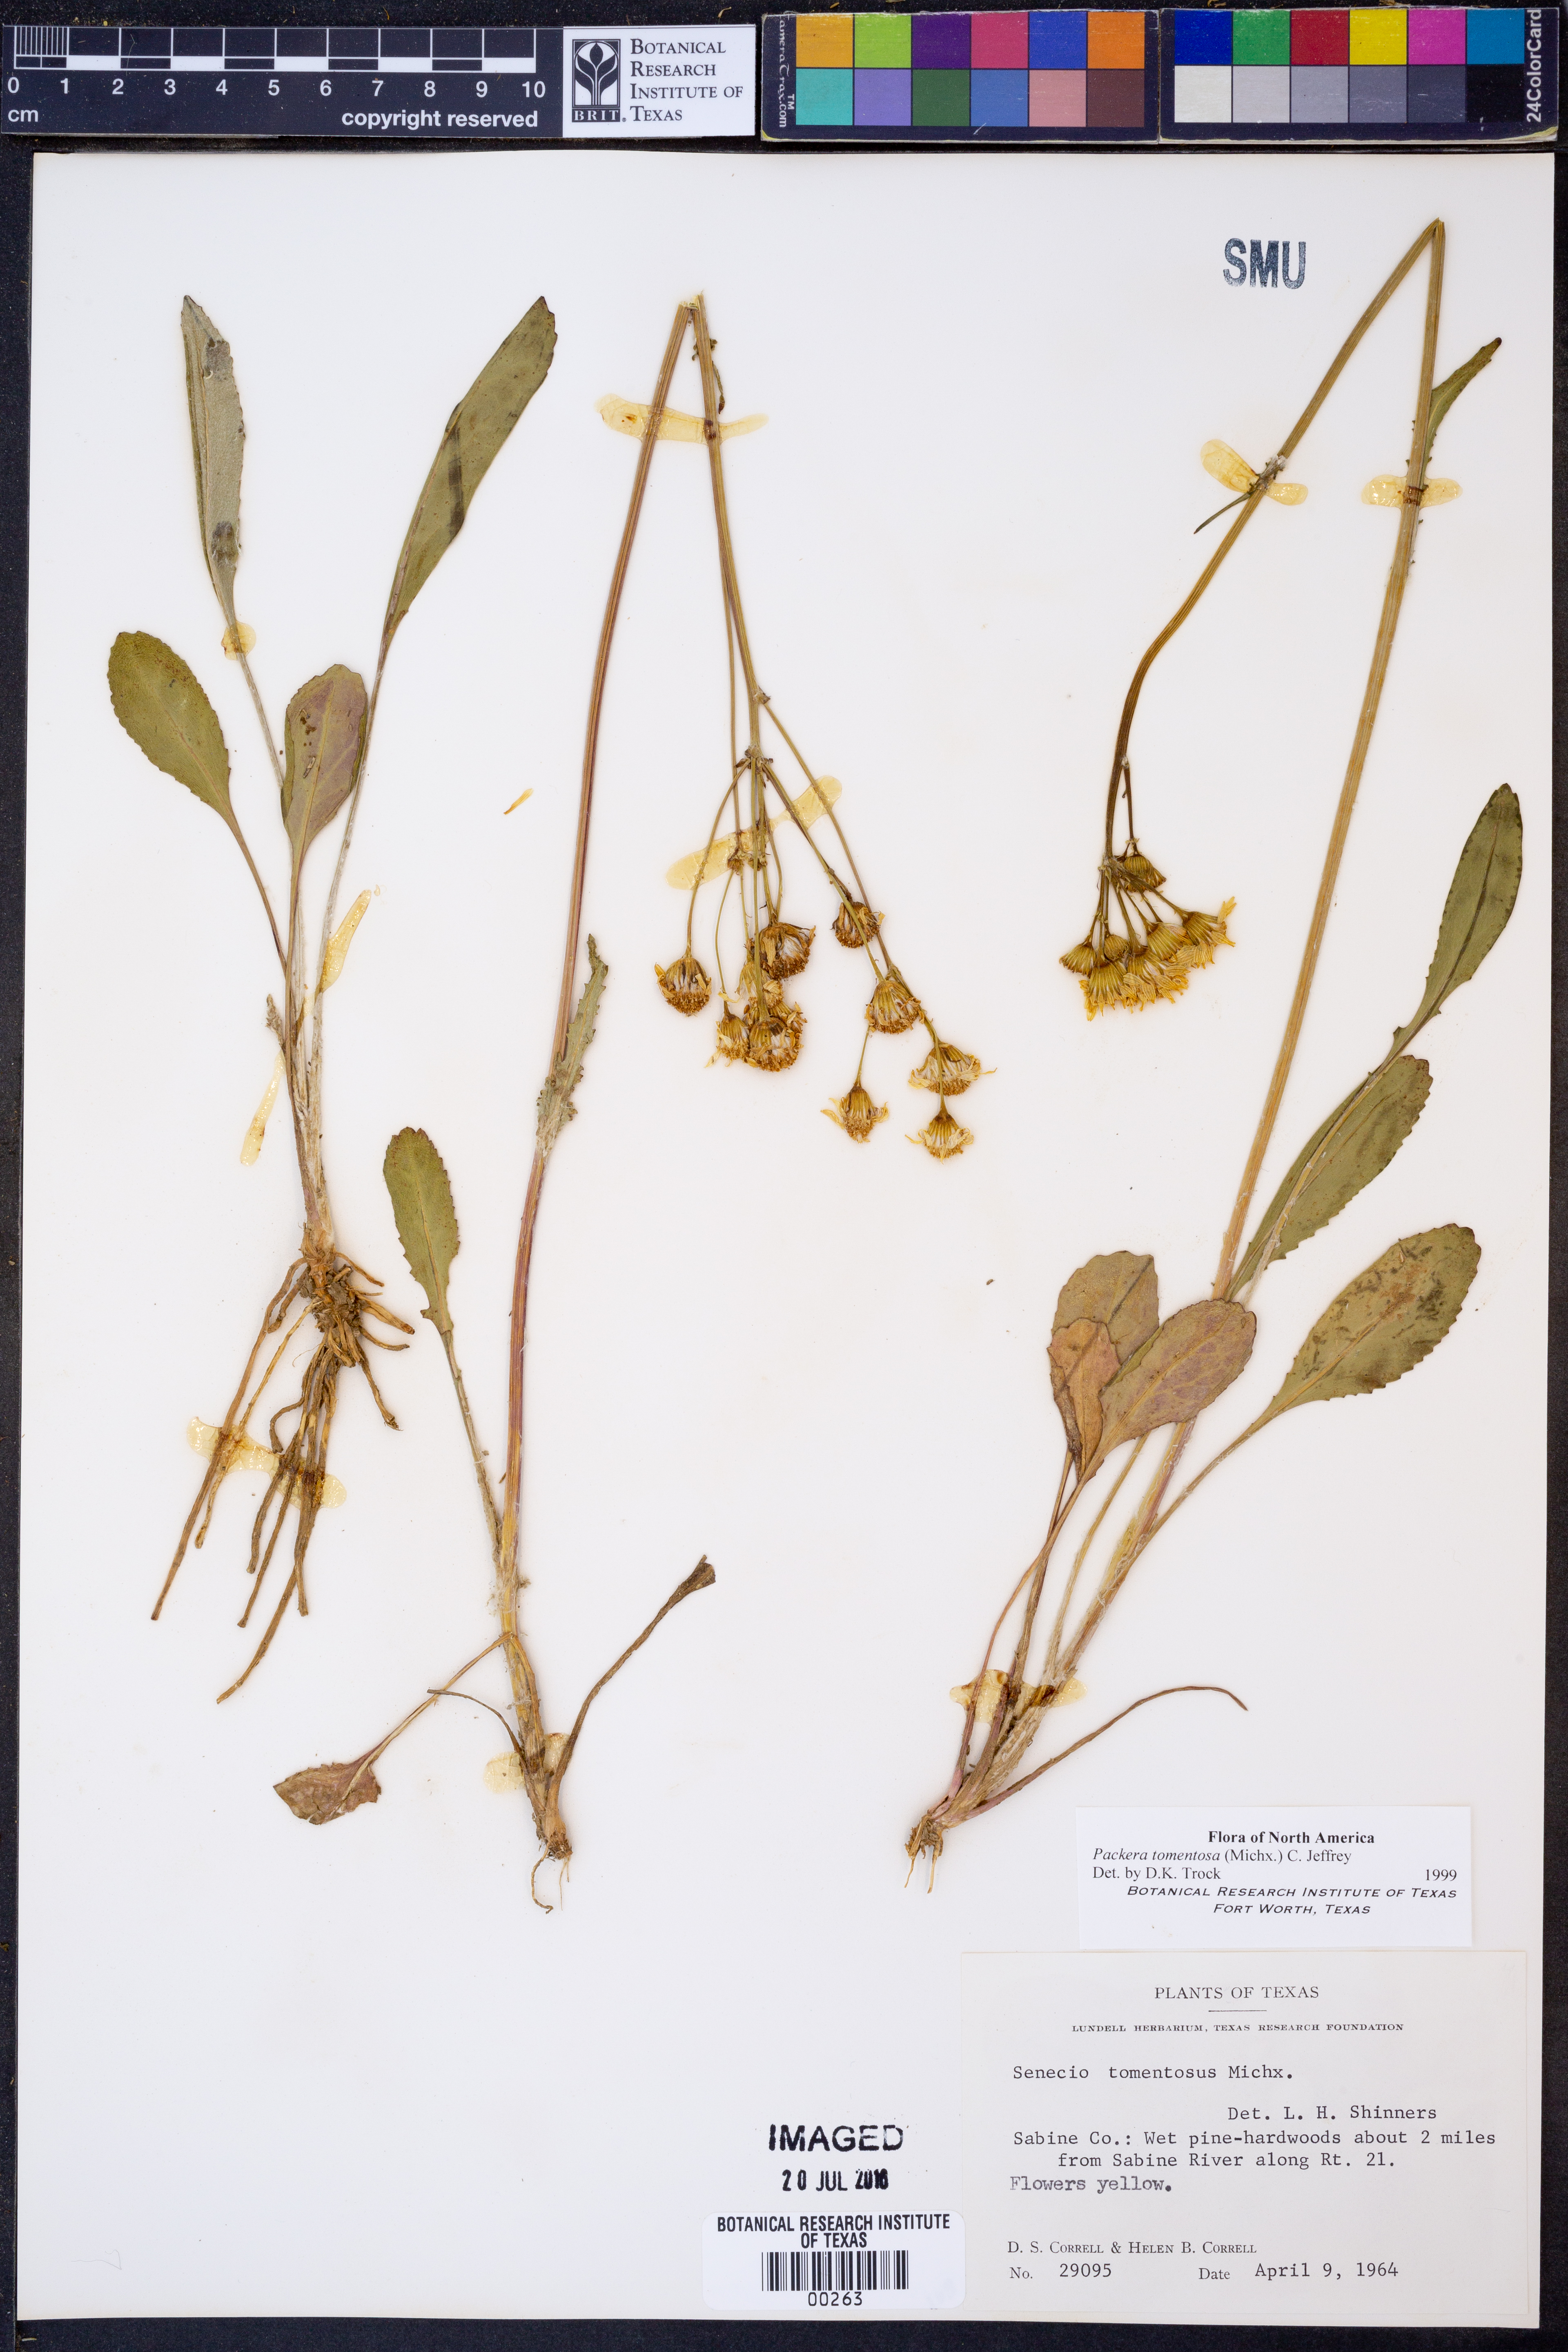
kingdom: Plantae
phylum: Tracheophyta
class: Magnoliopsida
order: Asterales
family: Asteraceae
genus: Packera
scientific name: Packera dubia
